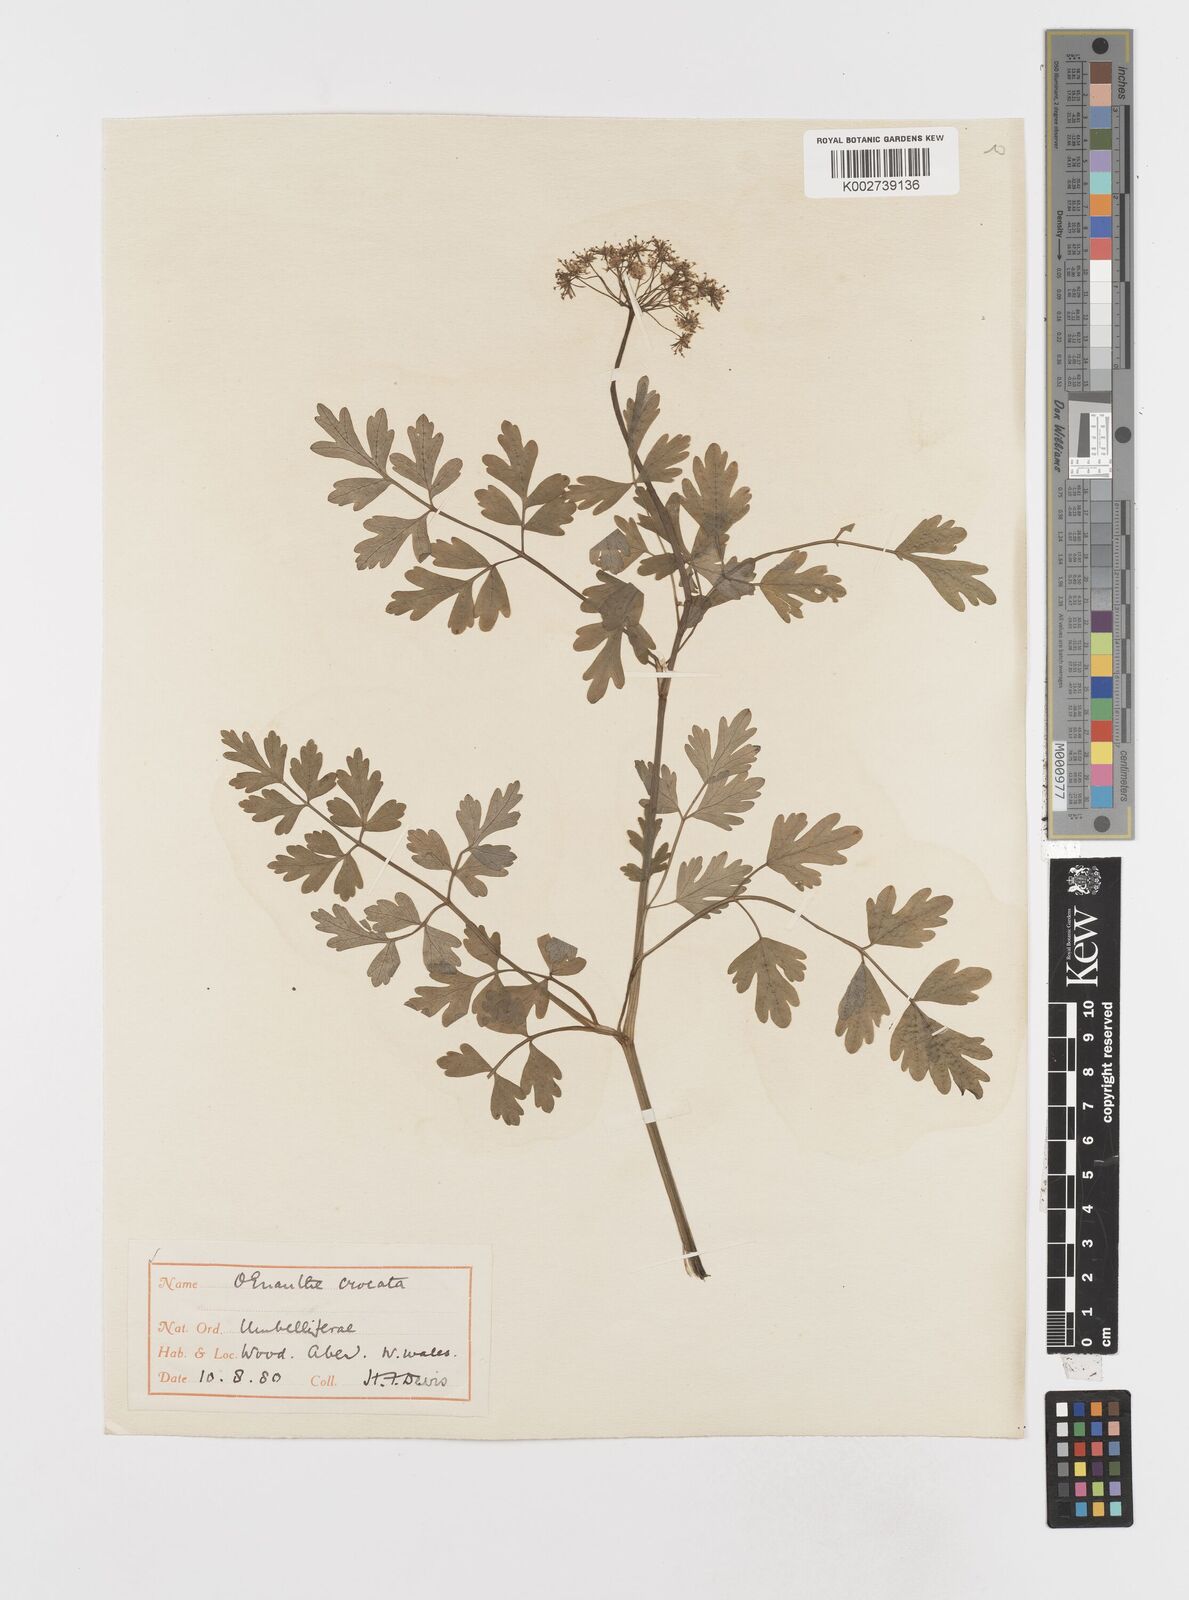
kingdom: Plantae
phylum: Tracheophyta
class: Magnoliopsida
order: Apiales
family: Apiaceae
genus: Oenanthe
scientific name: Oenanthe crocata
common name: Hemlock water-dropwort
